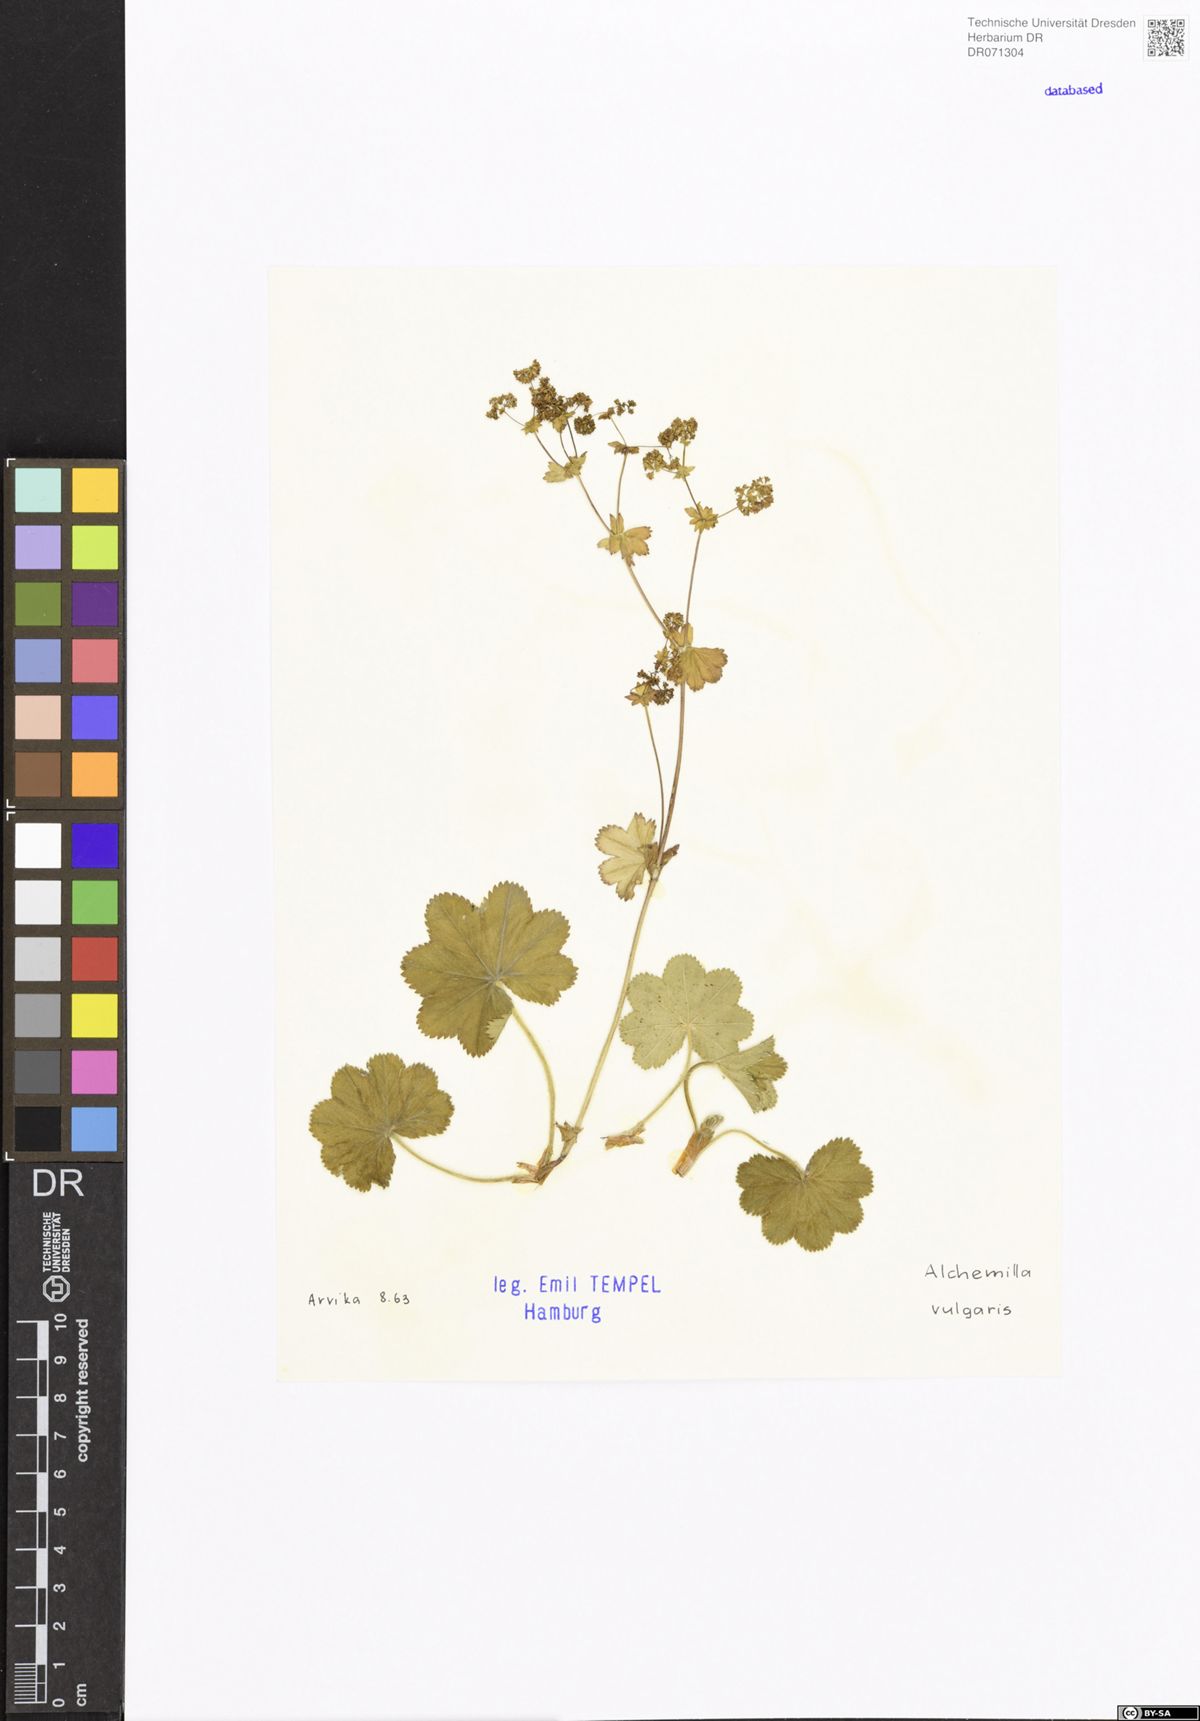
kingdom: Plantae
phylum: Tracheophyta
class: Magnoliopsida
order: Rosales
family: Rosaceae
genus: Lachemilla
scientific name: Lachemilla vulcanica
